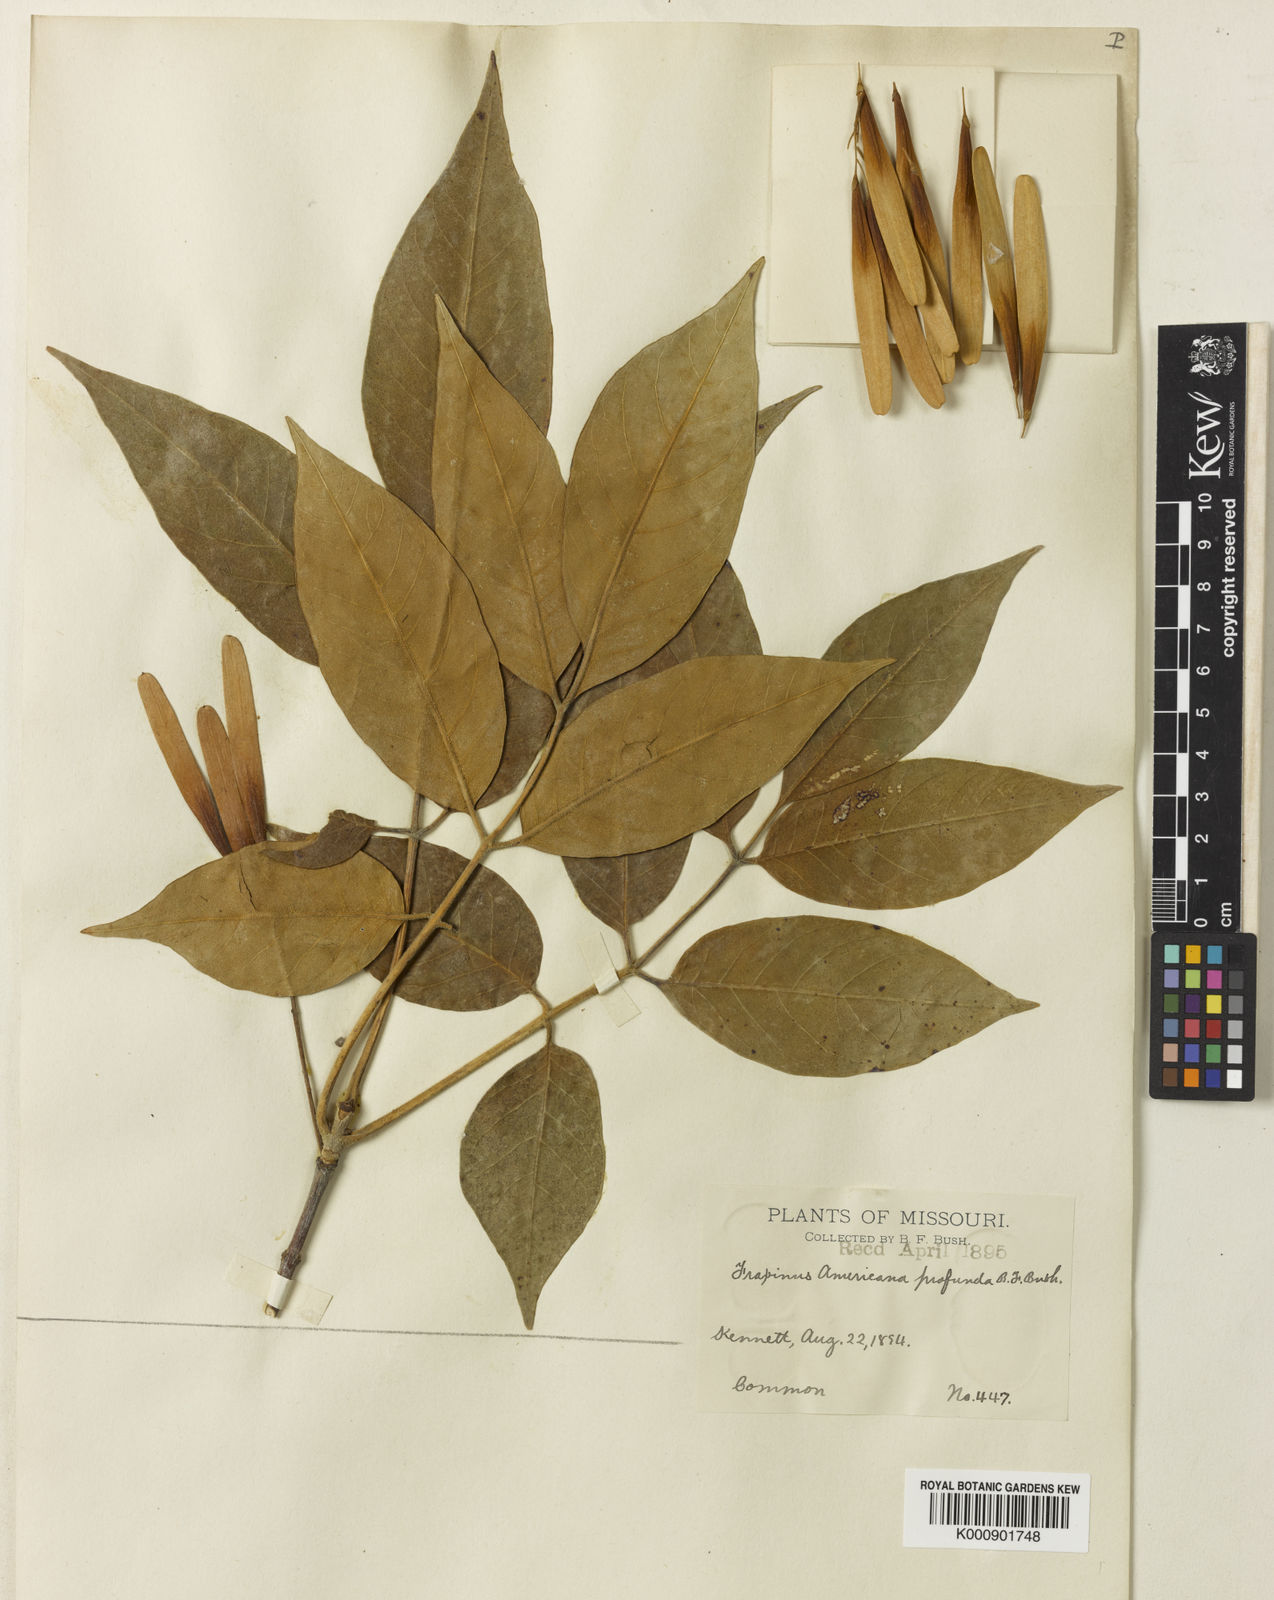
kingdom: Plantae
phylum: Tracheophyta
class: Magnoliopsida
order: Lamiales
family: Oleaceae
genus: Fraxinus
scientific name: Fraxinus
